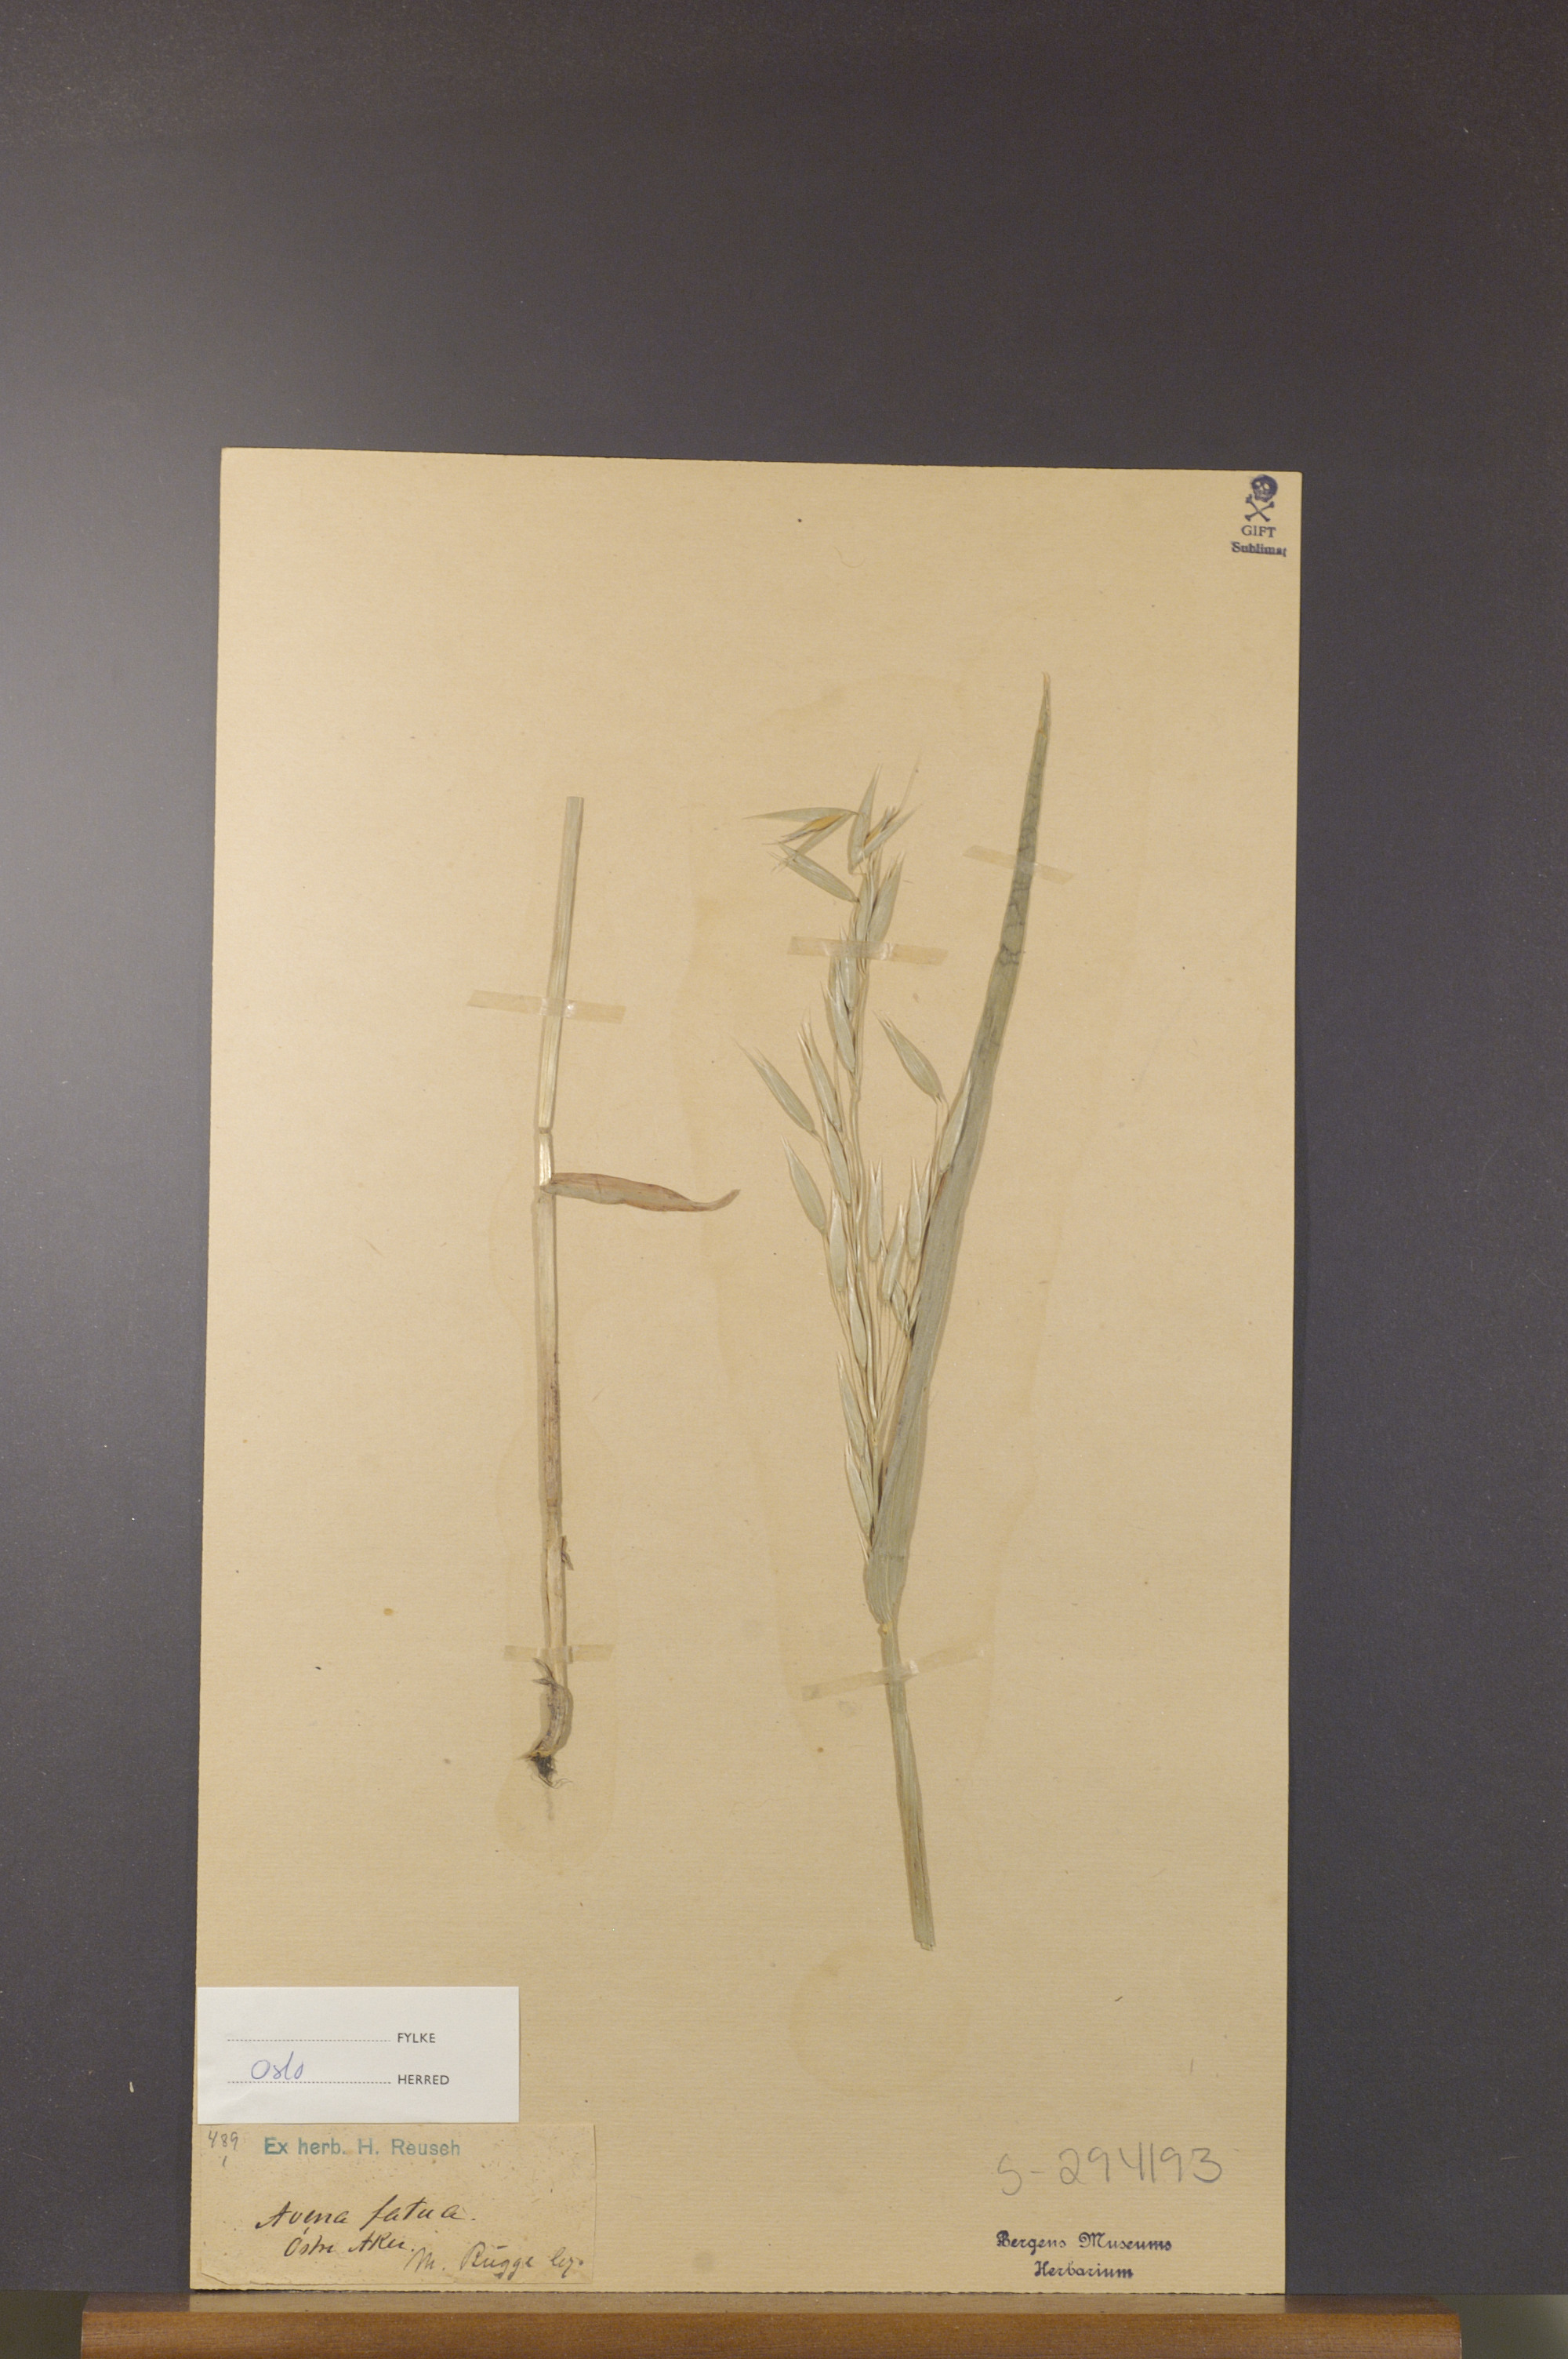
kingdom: Plantae
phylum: Tracheophyta
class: Liliopsida
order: Poales
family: Poaceae
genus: Avena
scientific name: Avena fatua
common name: Wild oat
